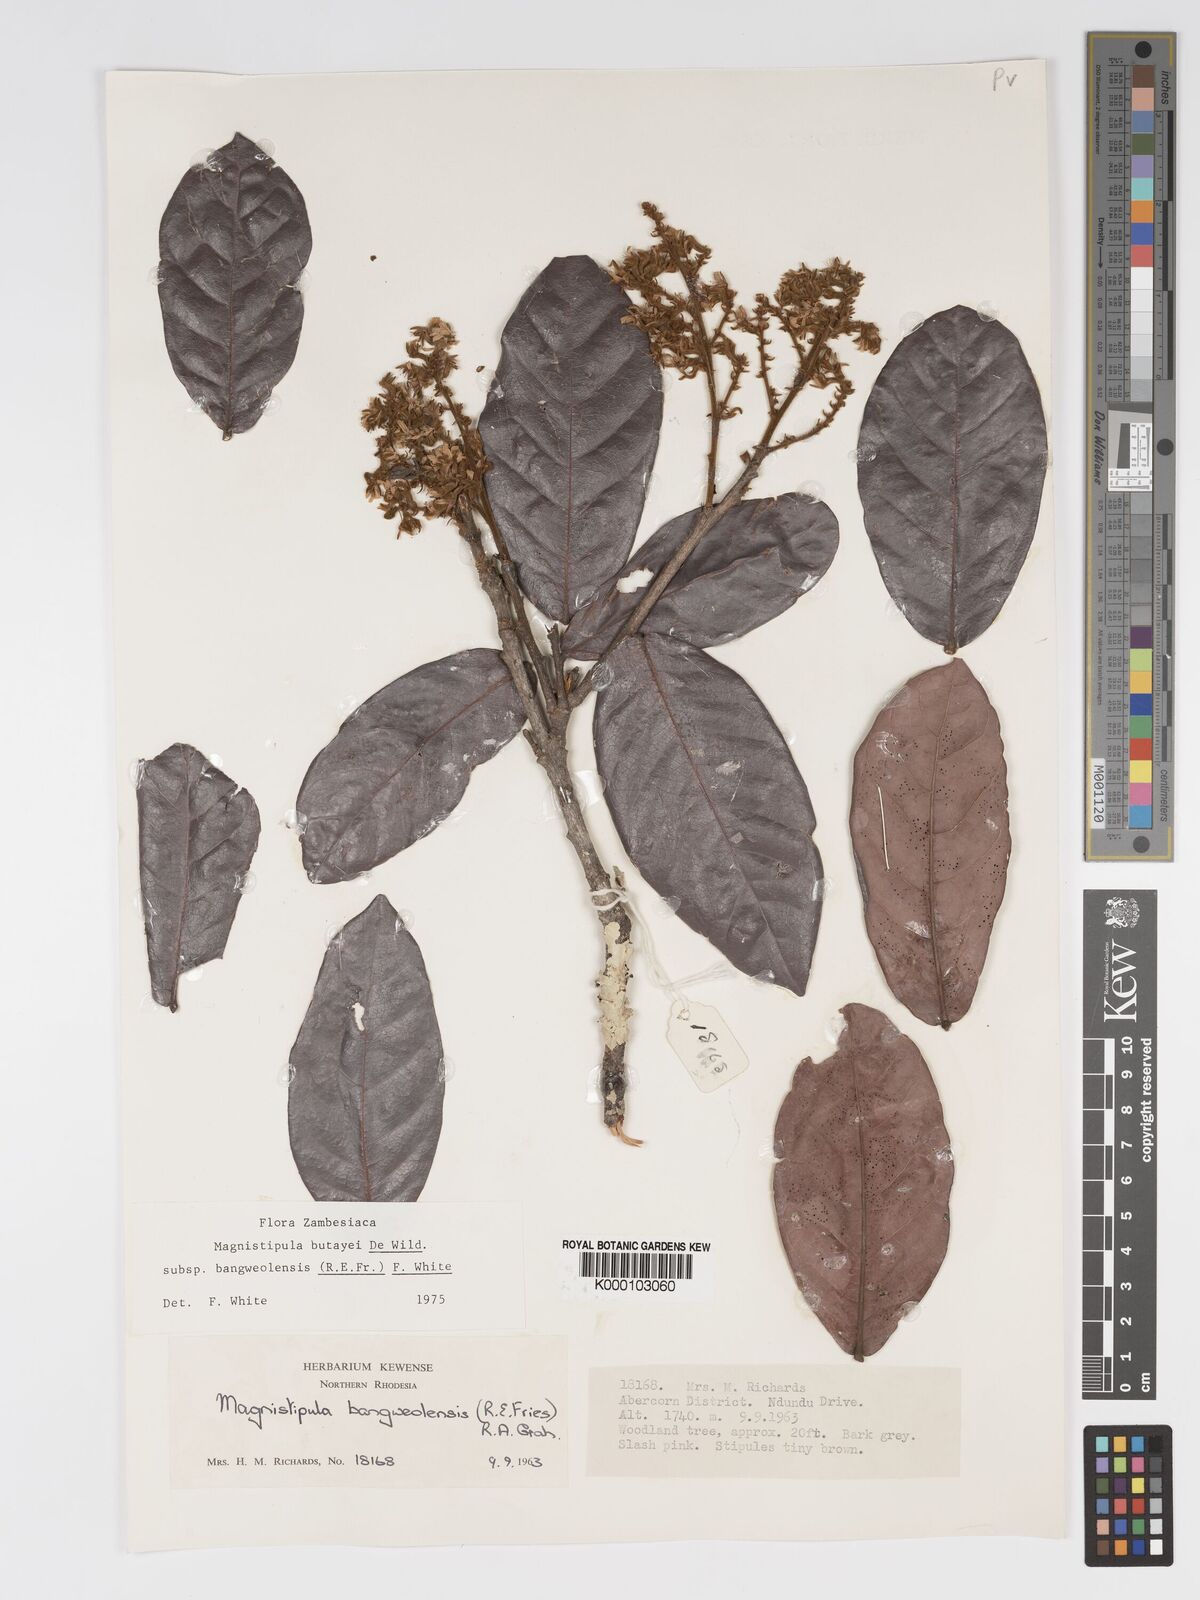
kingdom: Plantae
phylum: Tracheophyta
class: Magnoliopsida
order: Malpighiales
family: Chrysobalanaceae
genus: Magnistipula
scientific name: Magnistipula butayei
